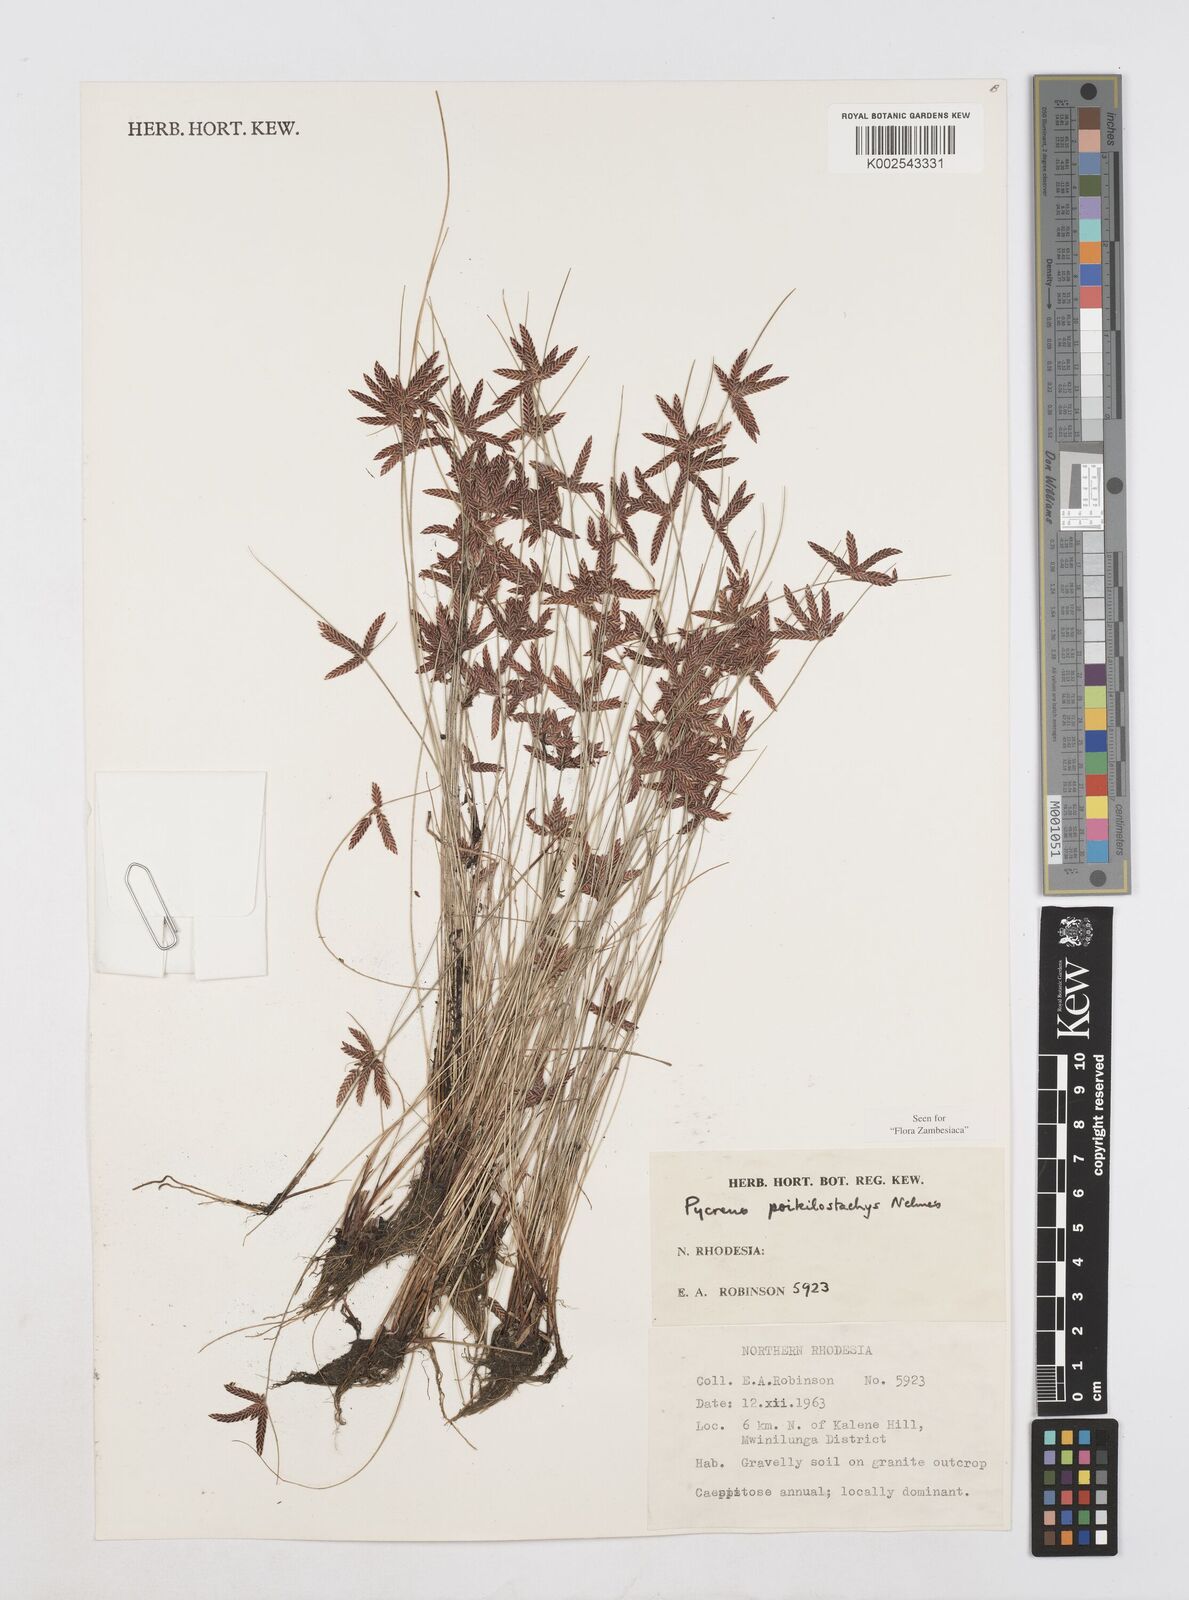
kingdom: Plantae
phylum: Tracheophyta
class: Liliopsida
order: Poales
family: Cyperaceae
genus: Cyperus
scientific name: Cyperus poikilostachys
